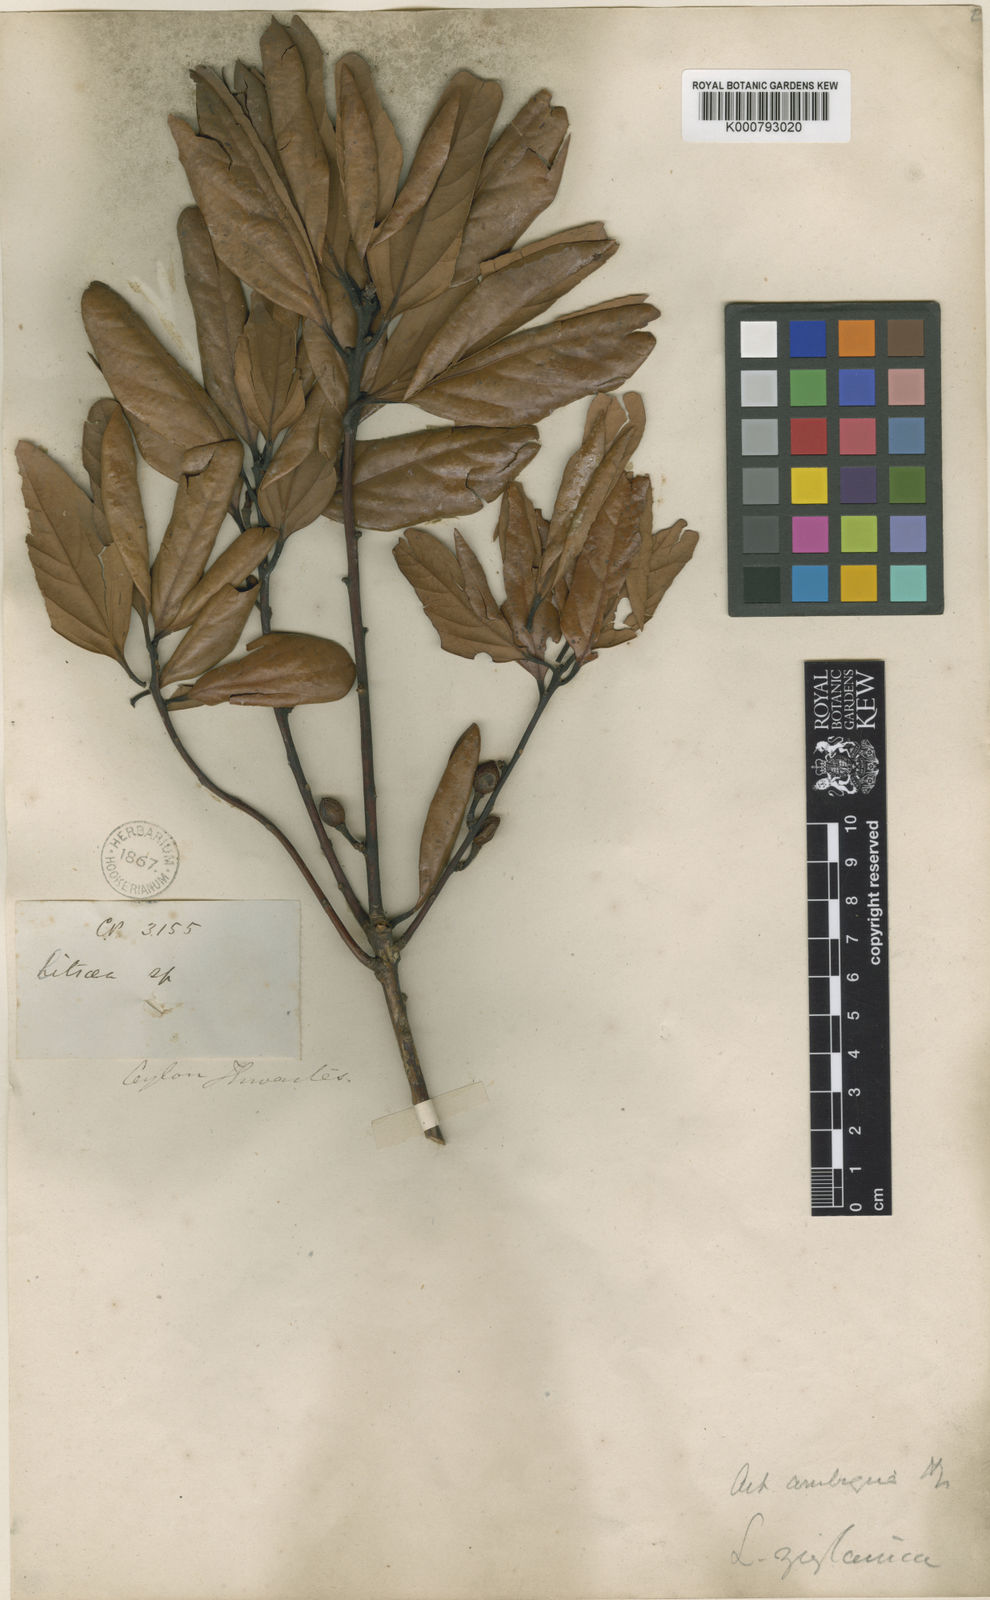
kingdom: Plantae
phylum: Tracheophyta
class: Magnoliopsida
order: Laurales
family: Lauraceae
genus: Actinodaphne
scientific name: Actinodaphne ambigua
